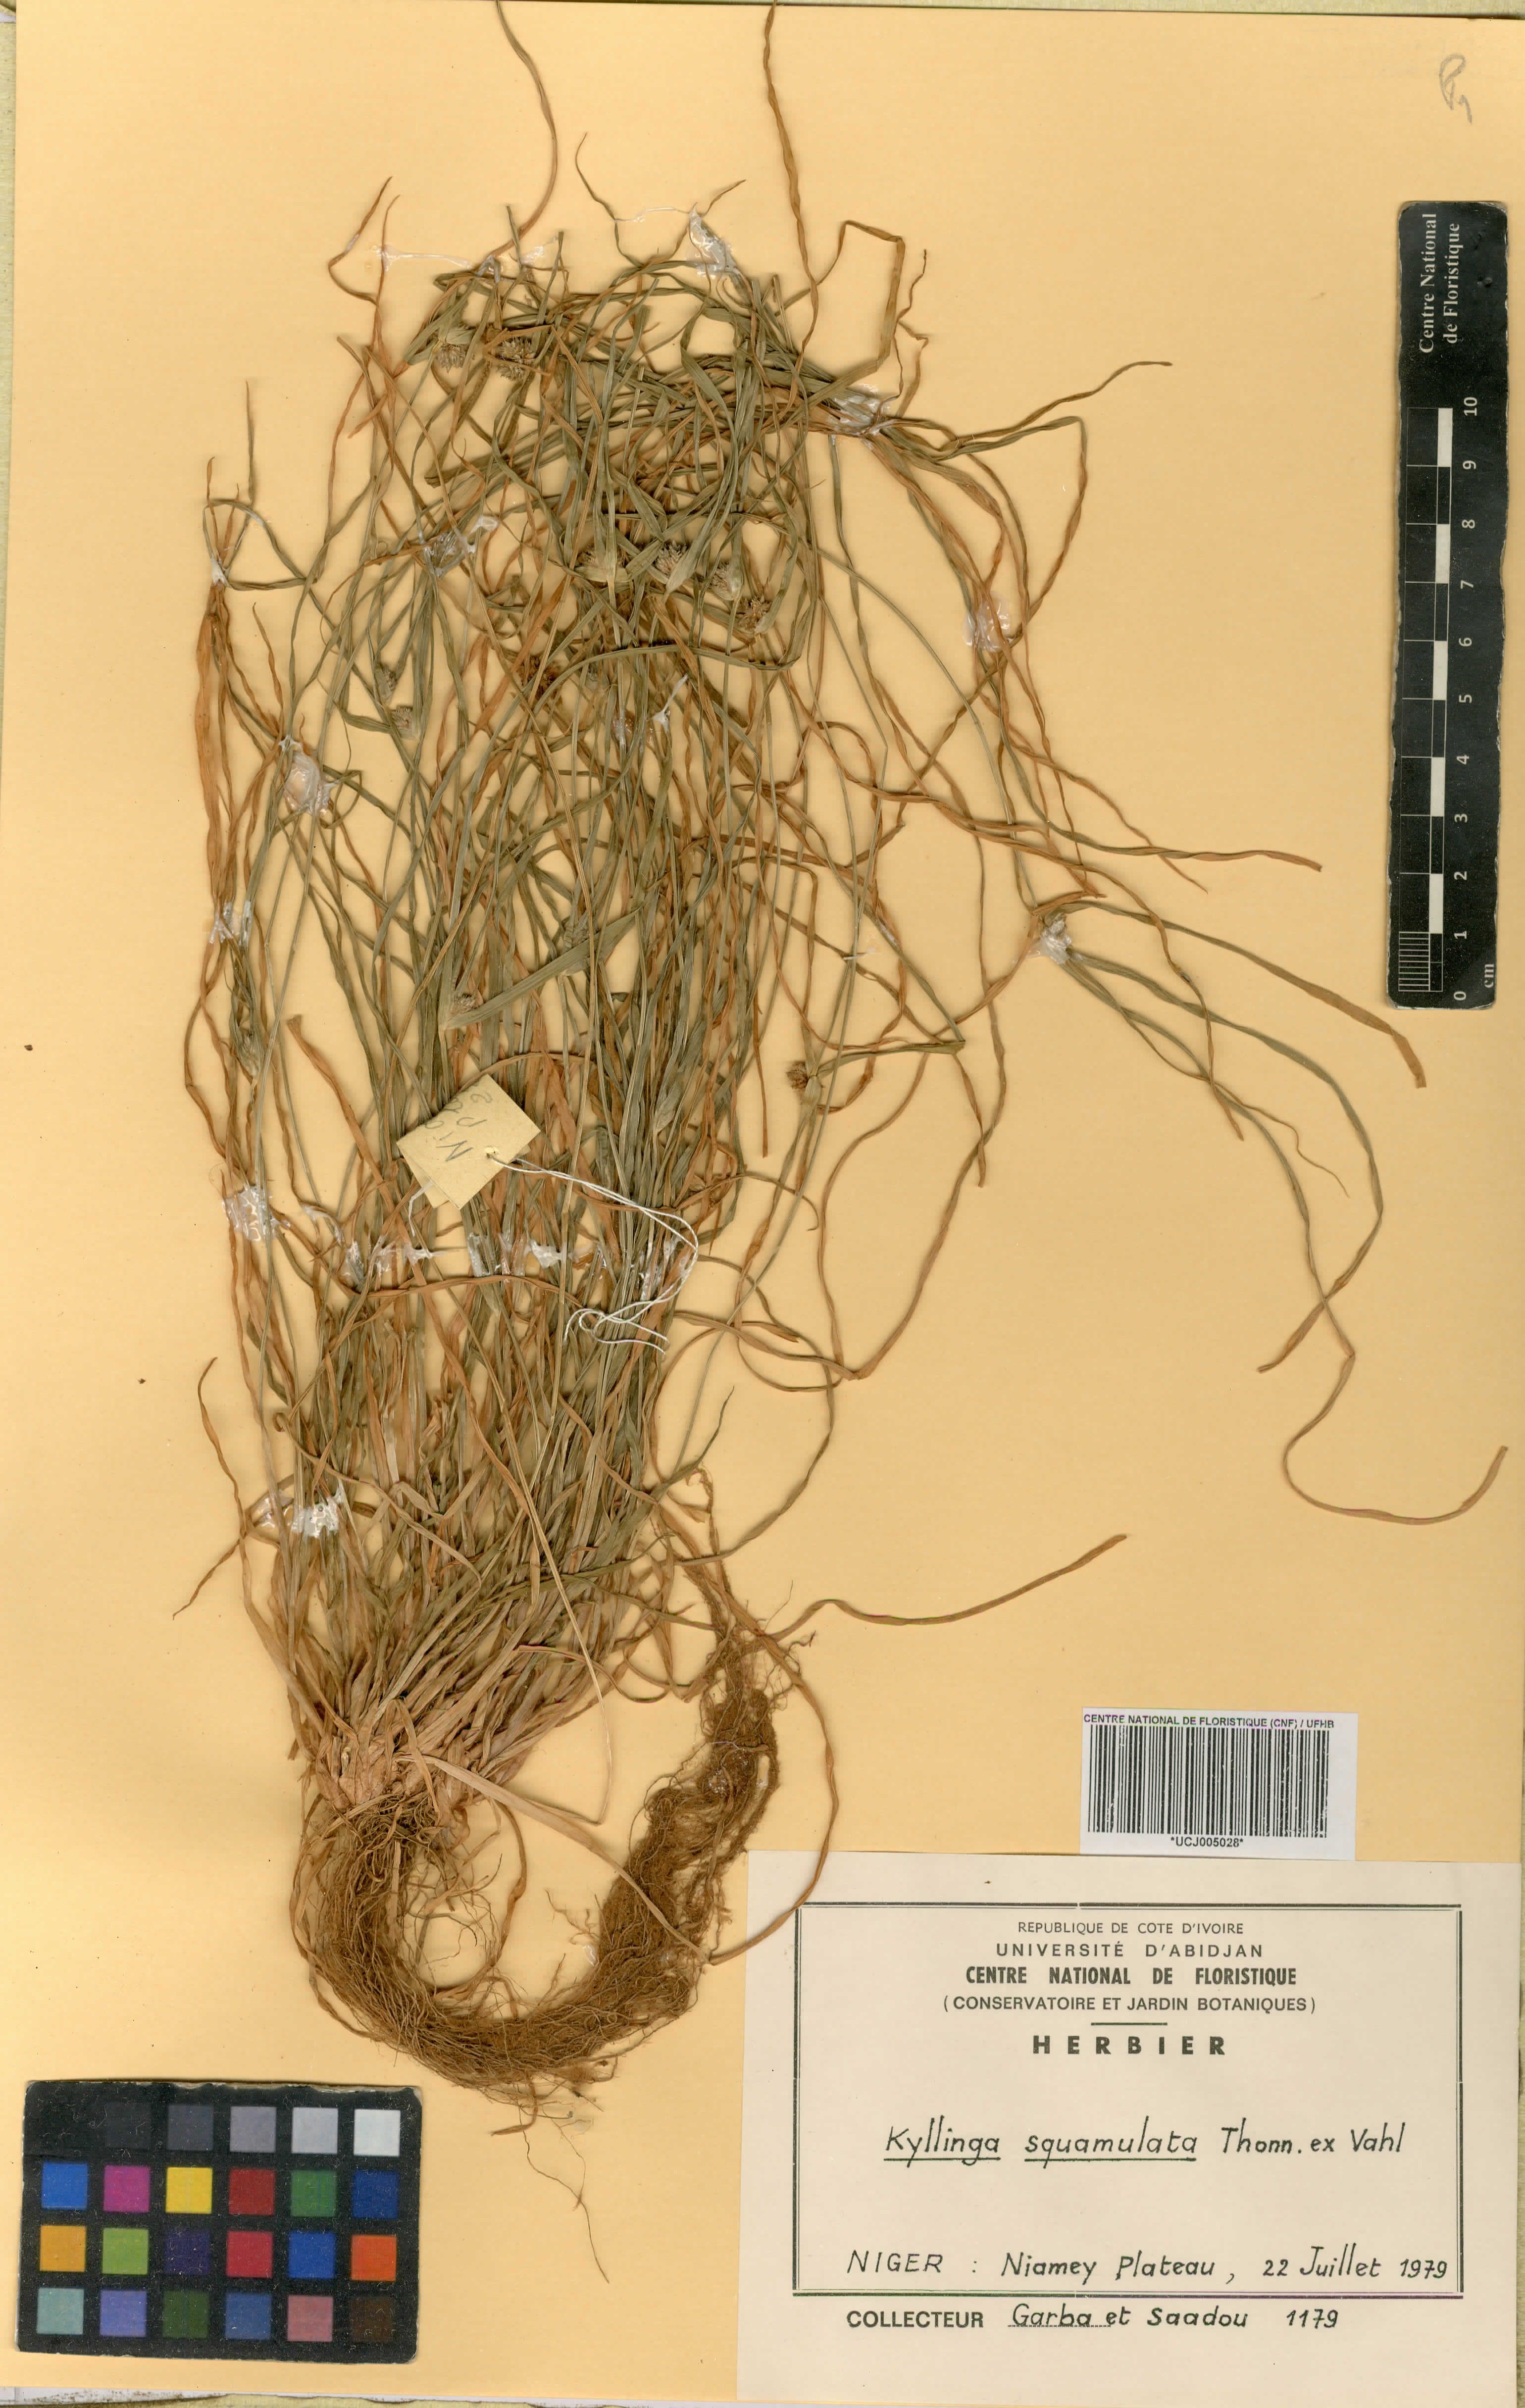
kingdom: Plantae
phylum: Tracheophyta
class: Liliopsida
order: Poales
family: Cyperaceae
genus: Cyperus
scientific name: Cyperus metzii
